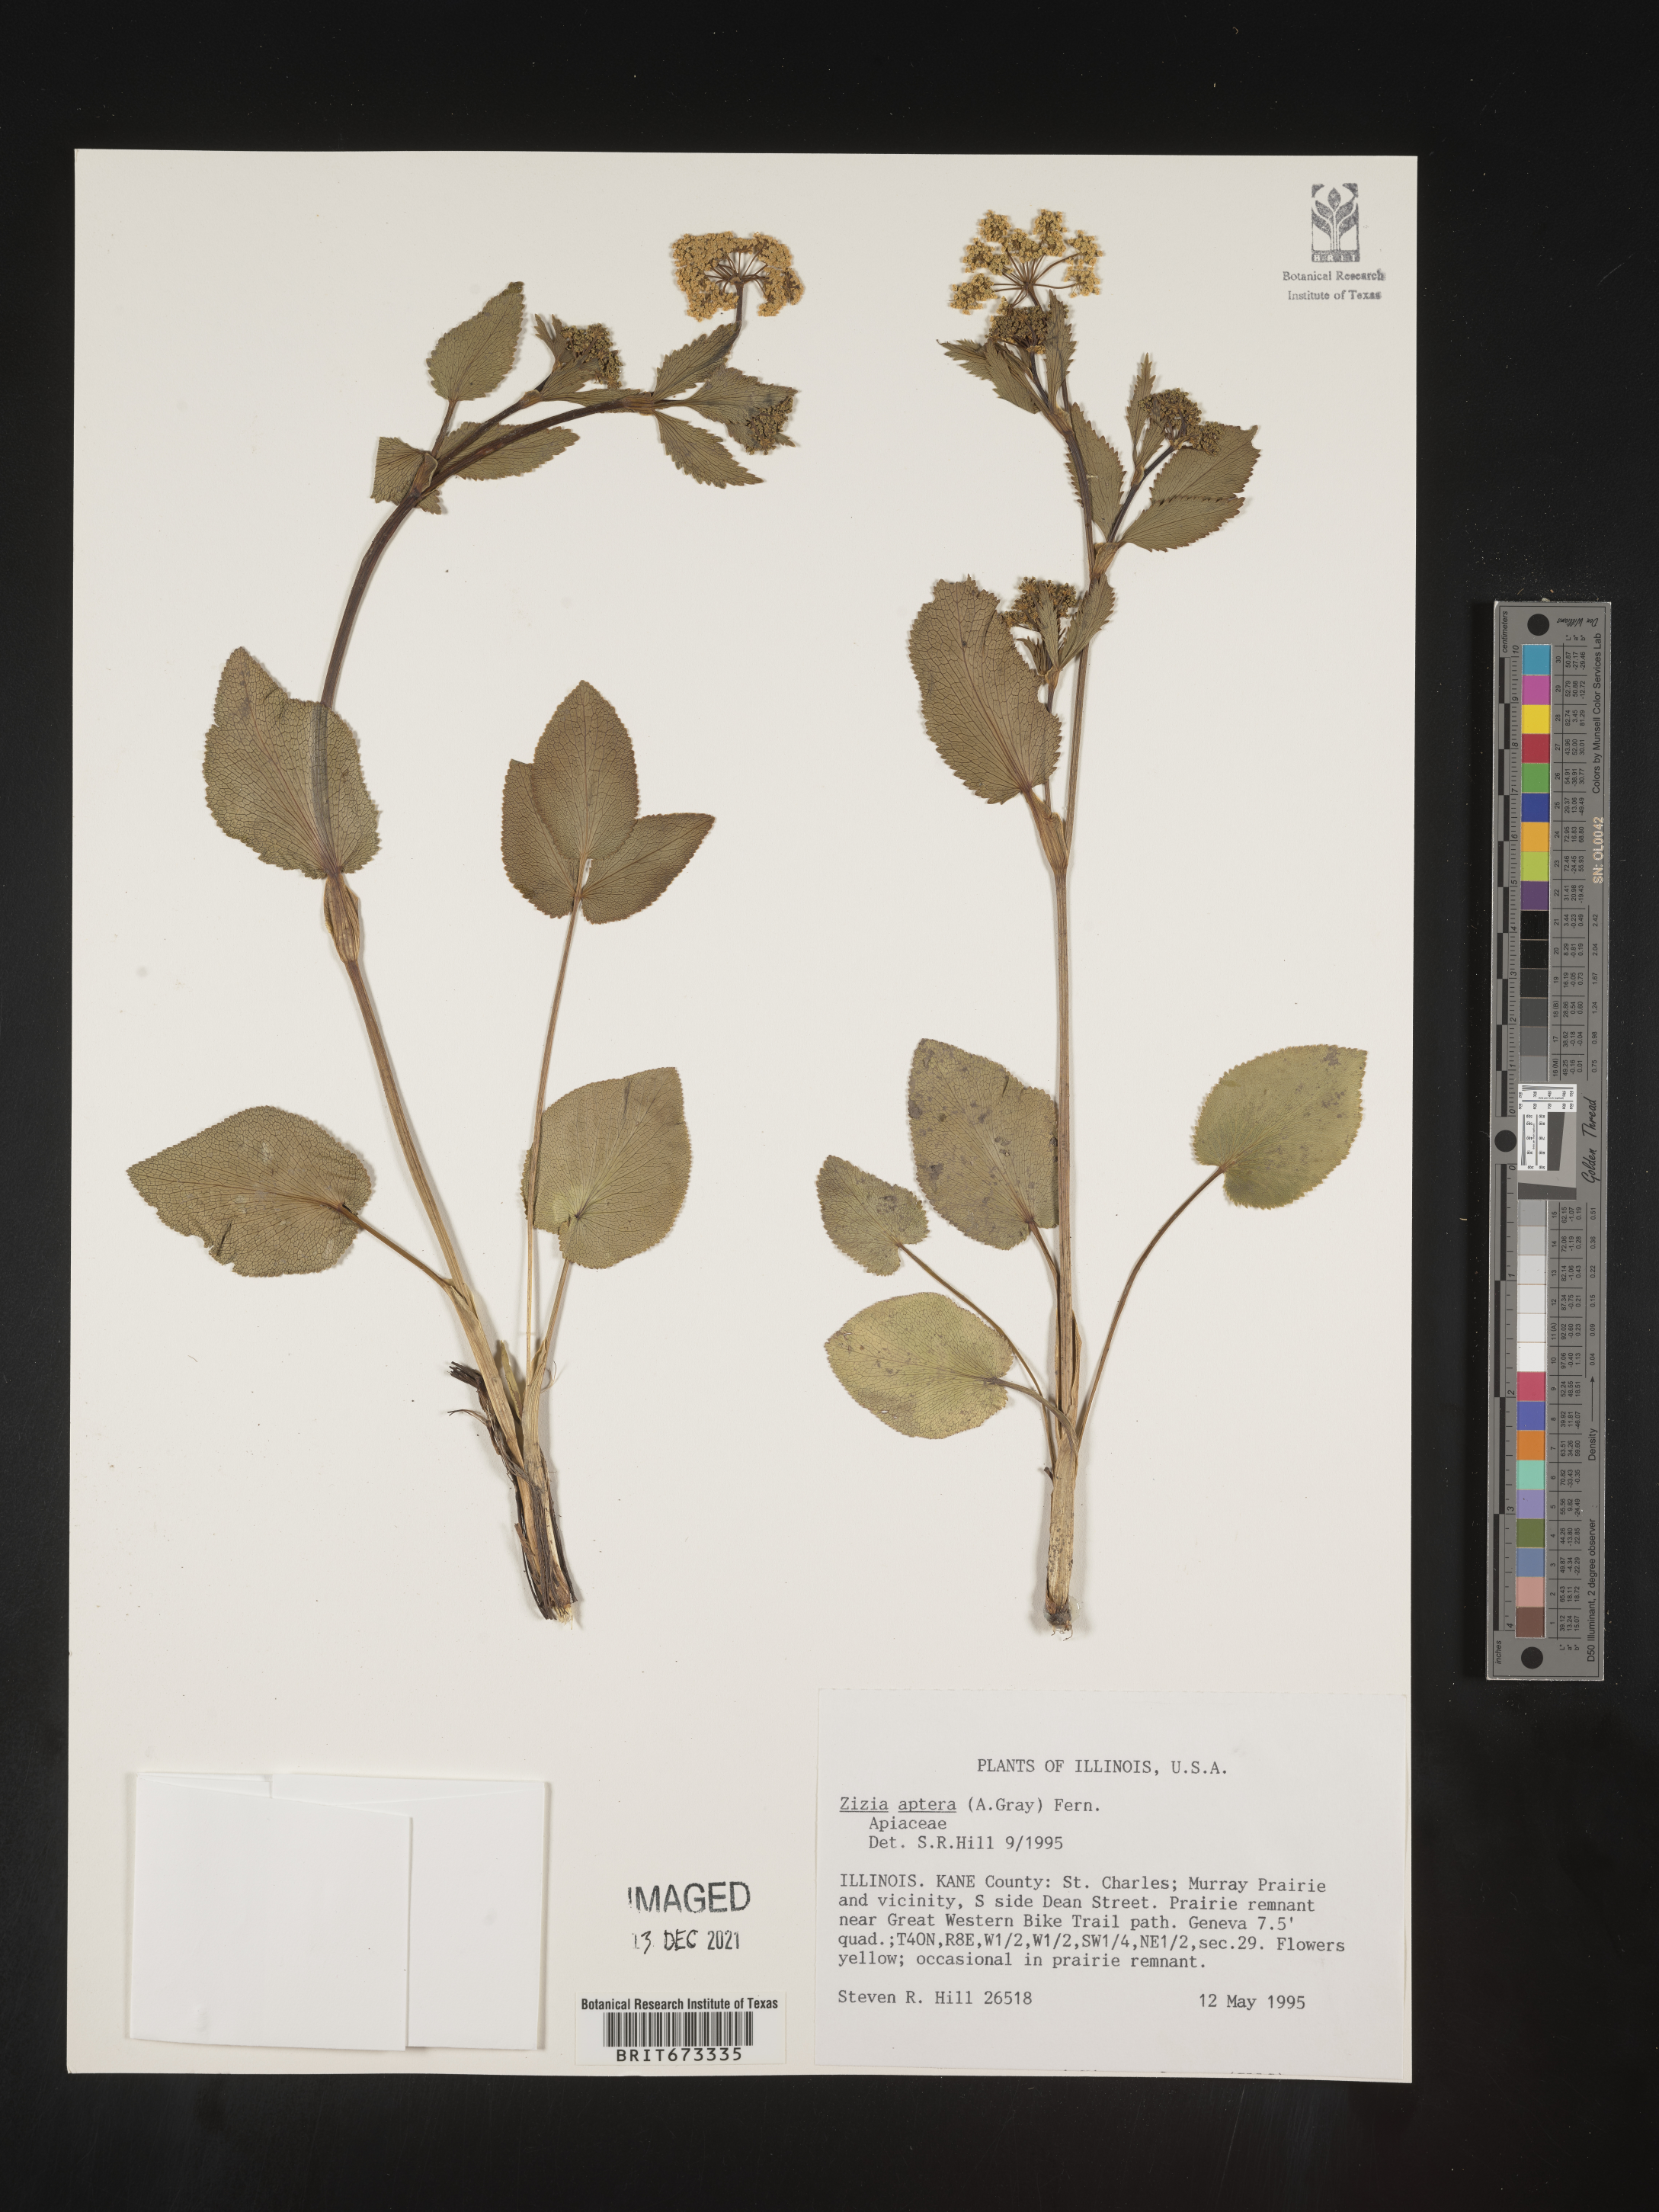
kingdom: Plantae
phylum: Tracheophyta
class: Magnoliopsida
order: Apiales
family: Apiaceae
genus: Zizia
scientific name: Zizia aptera
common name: Heart-leaved alexanders
